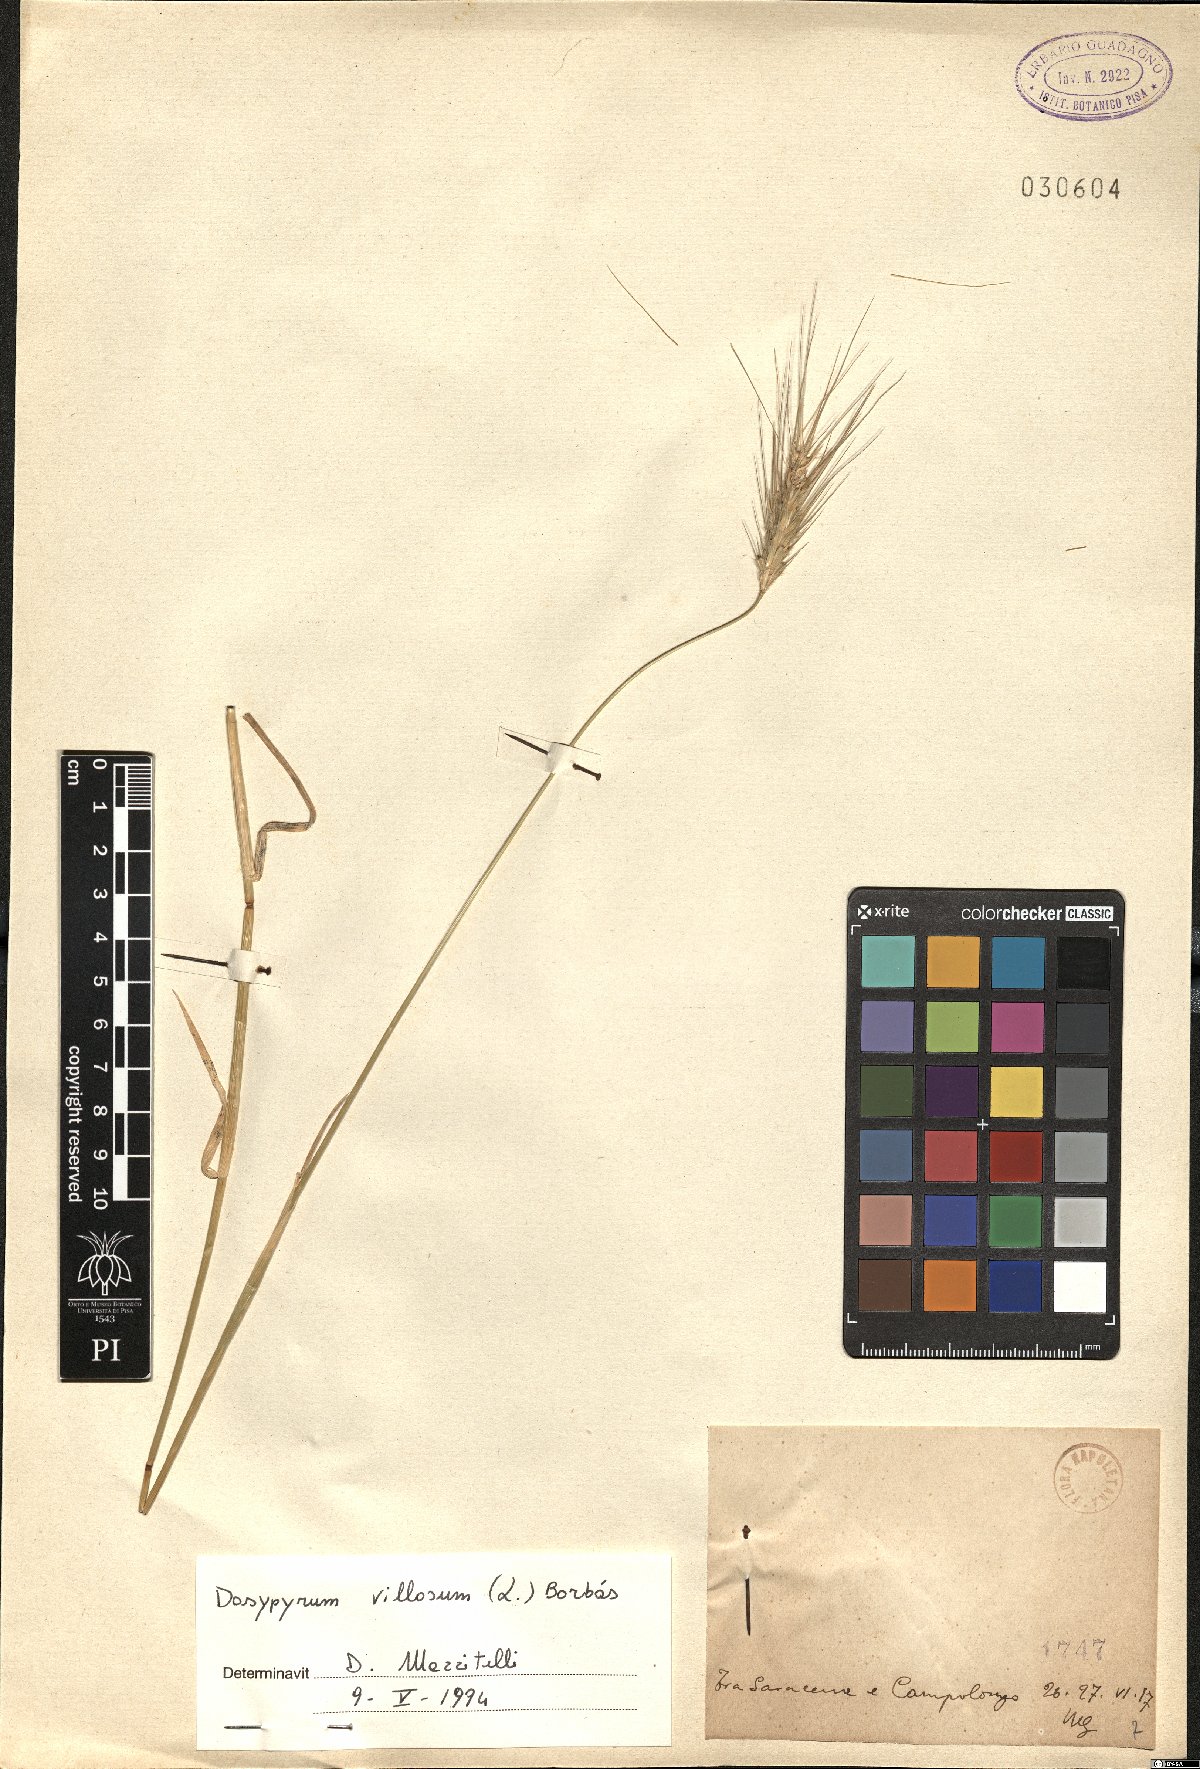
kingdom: Plantae
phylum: Tracheophyta
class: Liliopsida
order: Poales
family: Poaceae
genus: Dasypyrum
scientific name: Dasypyrum villosum
